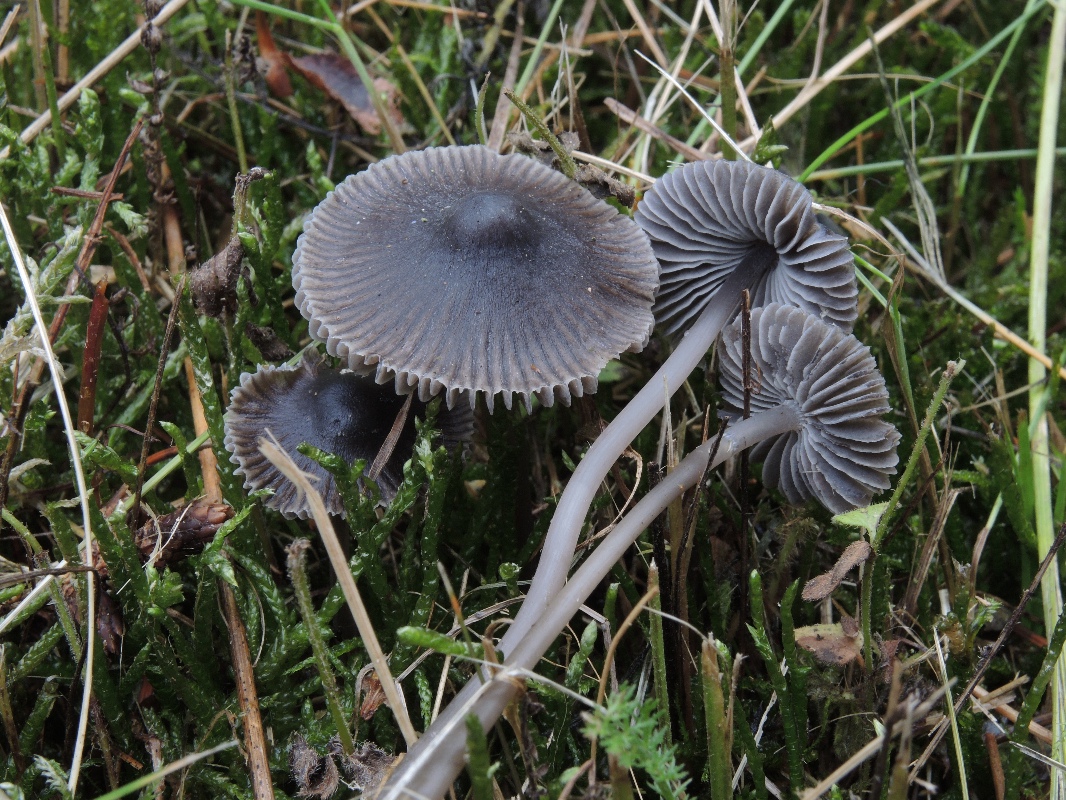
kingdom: Fungi
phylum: Basidiomycota
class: Agaricomycetes
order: Agaricales
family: Mycenaceae
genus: Mycena
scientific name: Mycena aetites
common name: plæne-huesvamp
